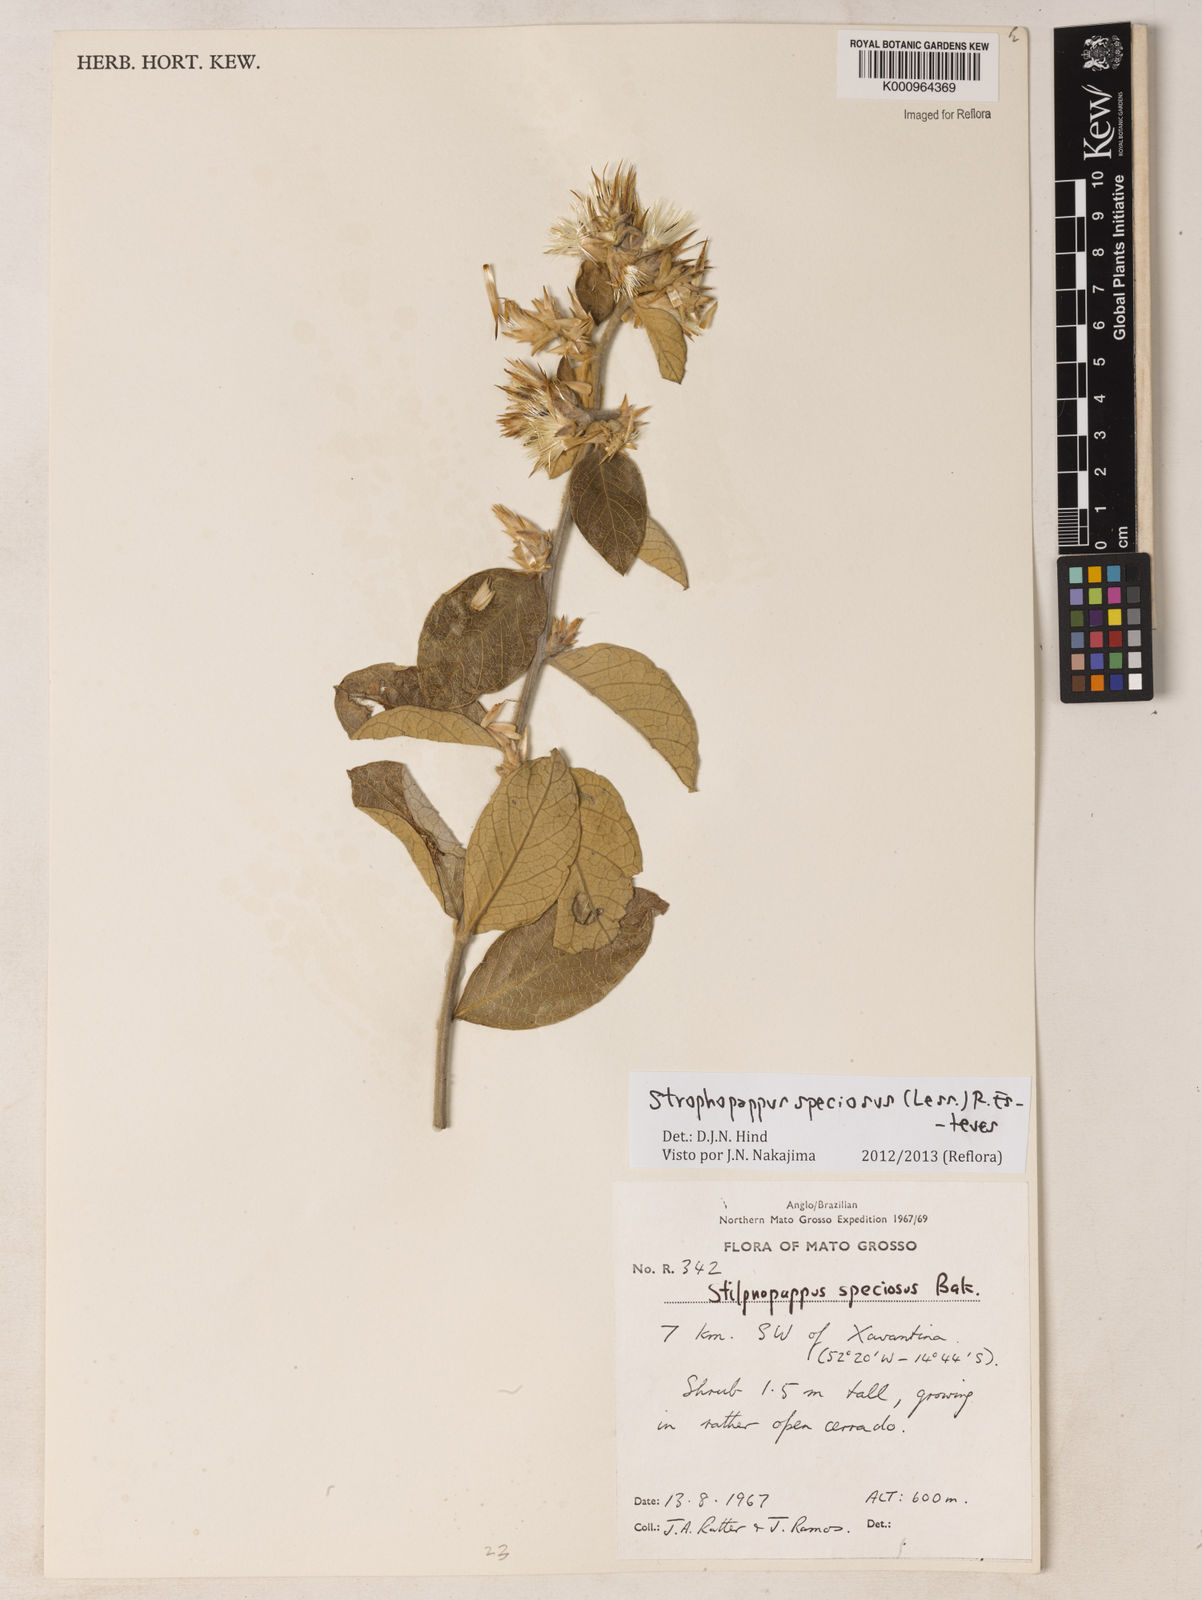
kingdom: Plantae
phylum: Tracheophyta
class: Magnoliopsida
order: Asterales
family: Asteraceae
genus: Stilpnopappus
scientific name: Stilpnopappus speciosus
